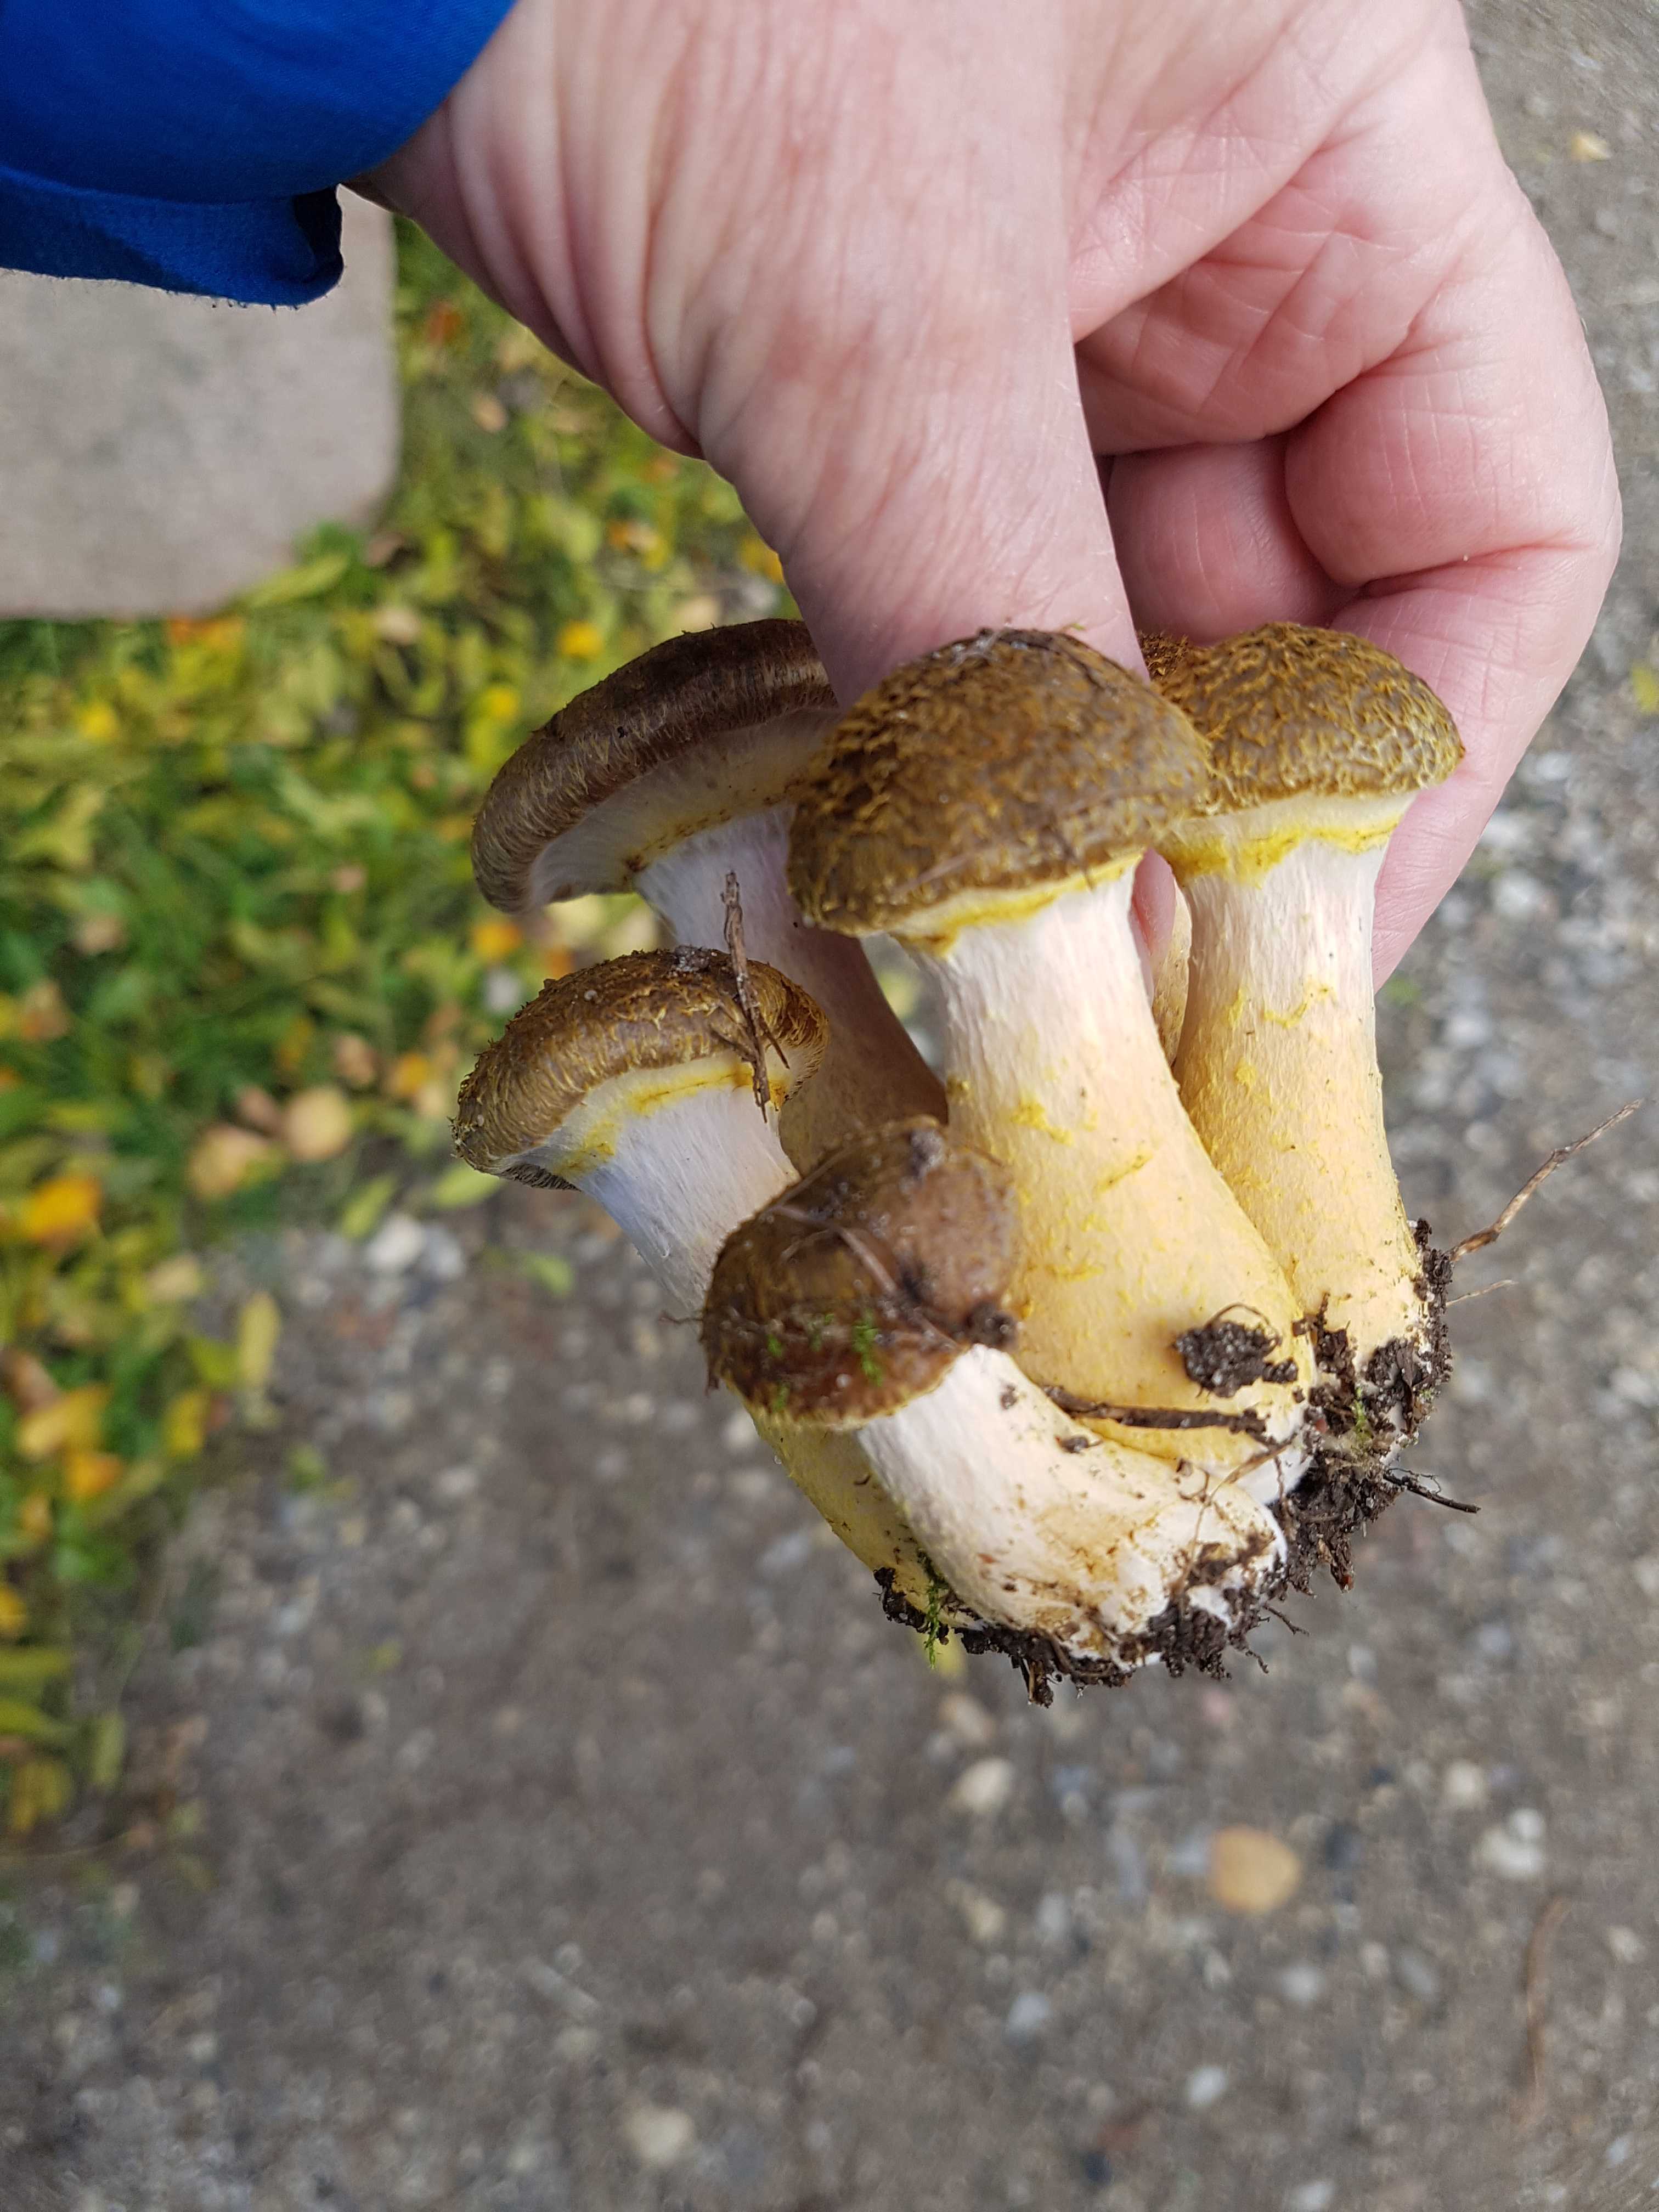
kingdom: Fungi
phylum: Basidiomycota
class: Agaricomycetes
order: Agaricales
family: Physalacriaceae
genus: Armillaria
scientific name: Armillaria lutea
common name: køllestokket honningsvamp
